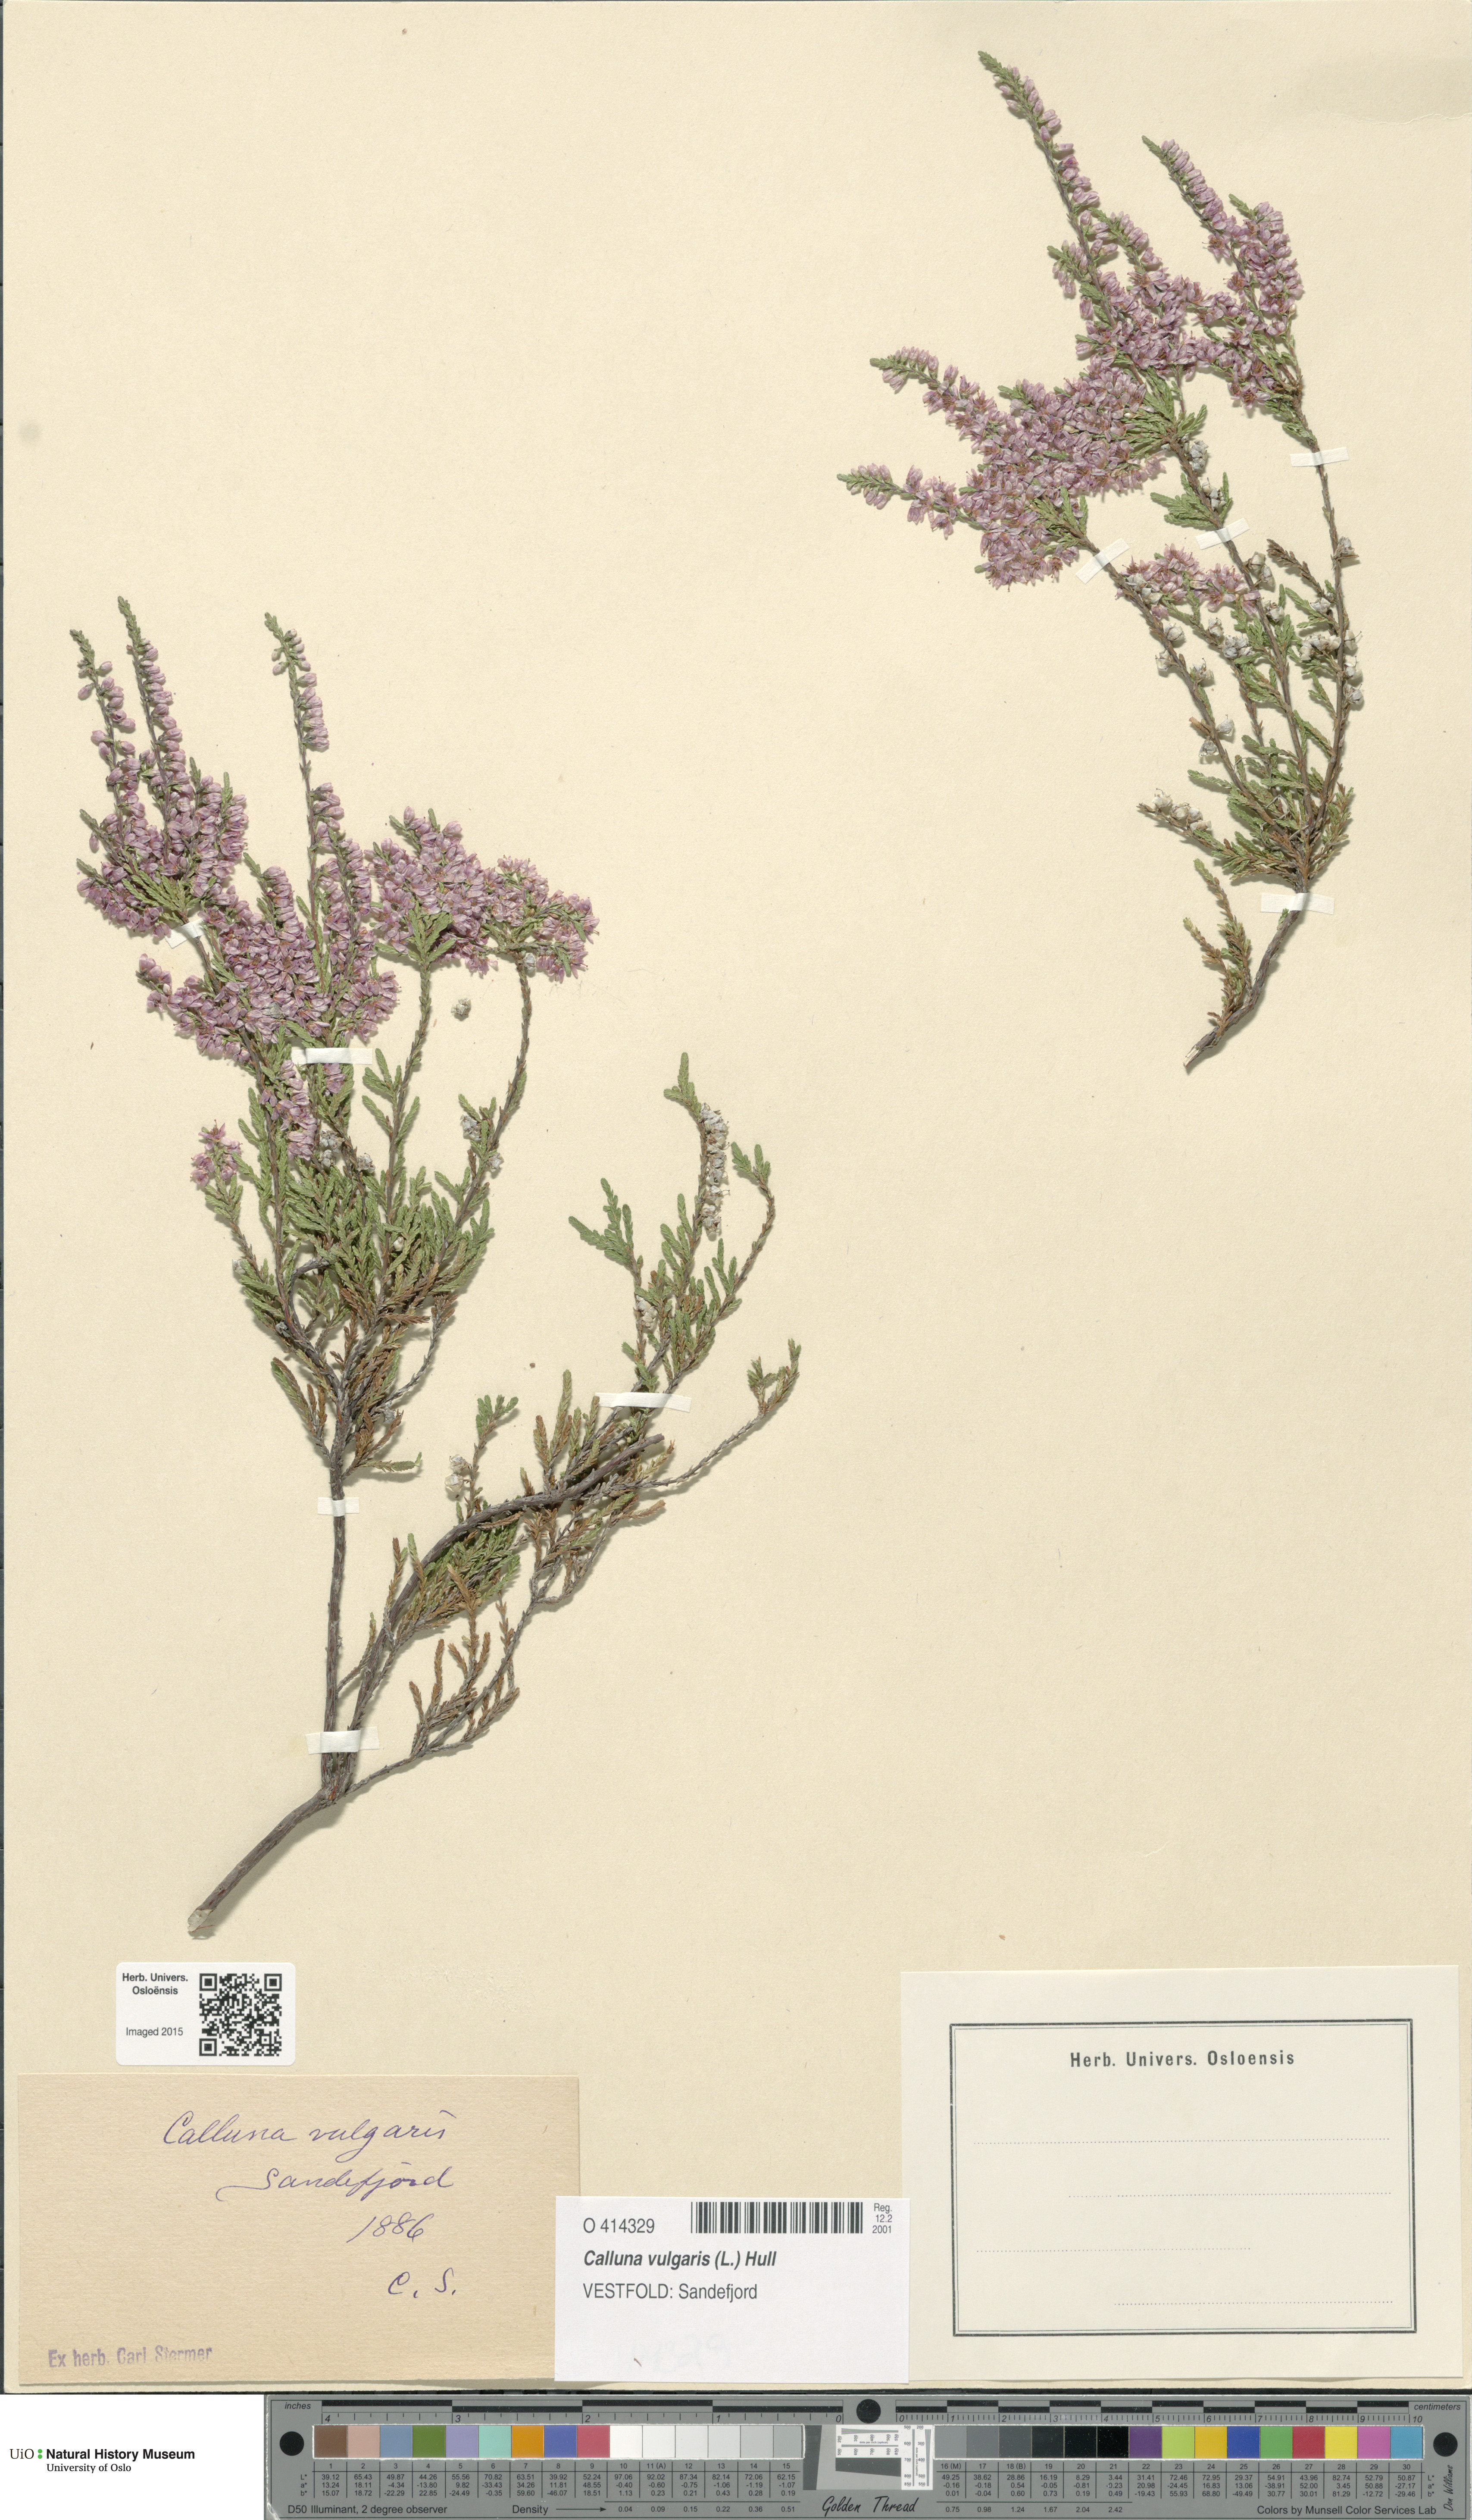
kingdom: Plantae
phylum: Tracheophyta
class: Magnoliopsida
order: Ericales
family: Ericaceae
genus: Calluna
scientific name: Calluna vulgaris
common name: Heather
